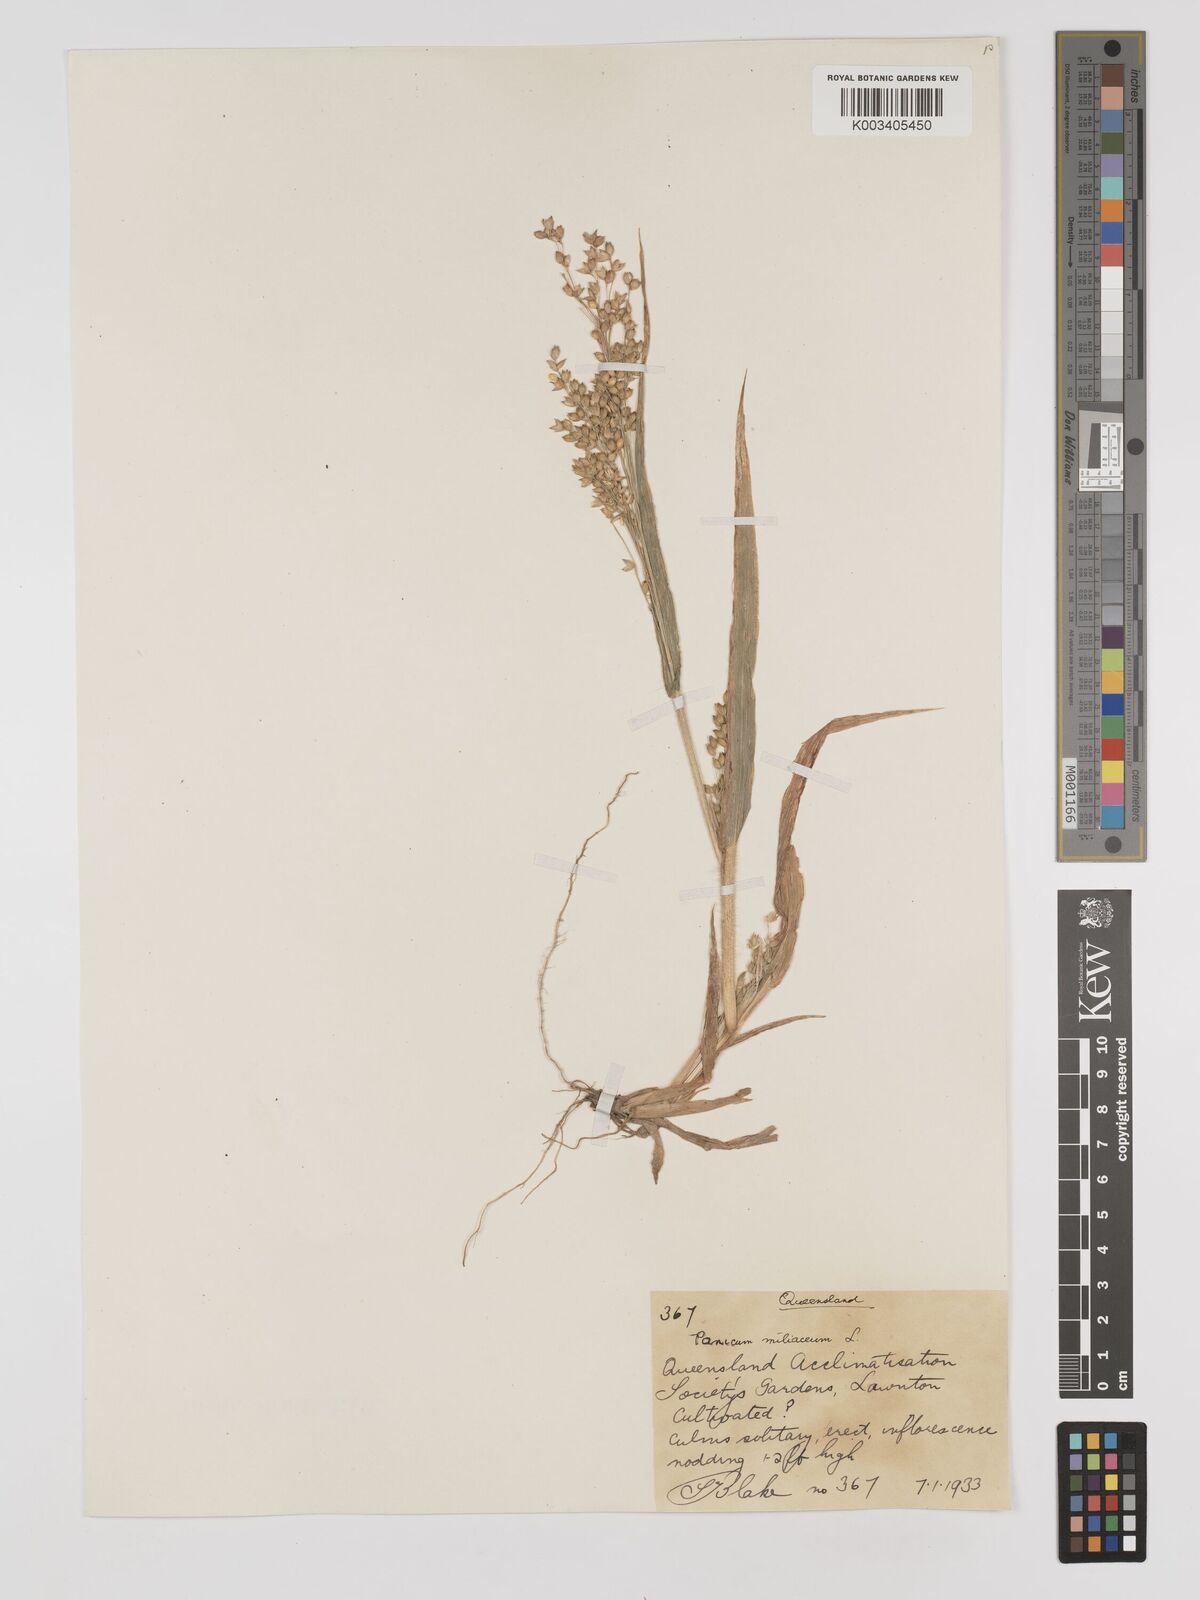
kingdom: Plantae
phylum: Tracheophyta
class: Liliopsida
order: Poales
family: Poaceae
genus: Panicum
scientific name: Panicum miliaceum
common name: Common millet
